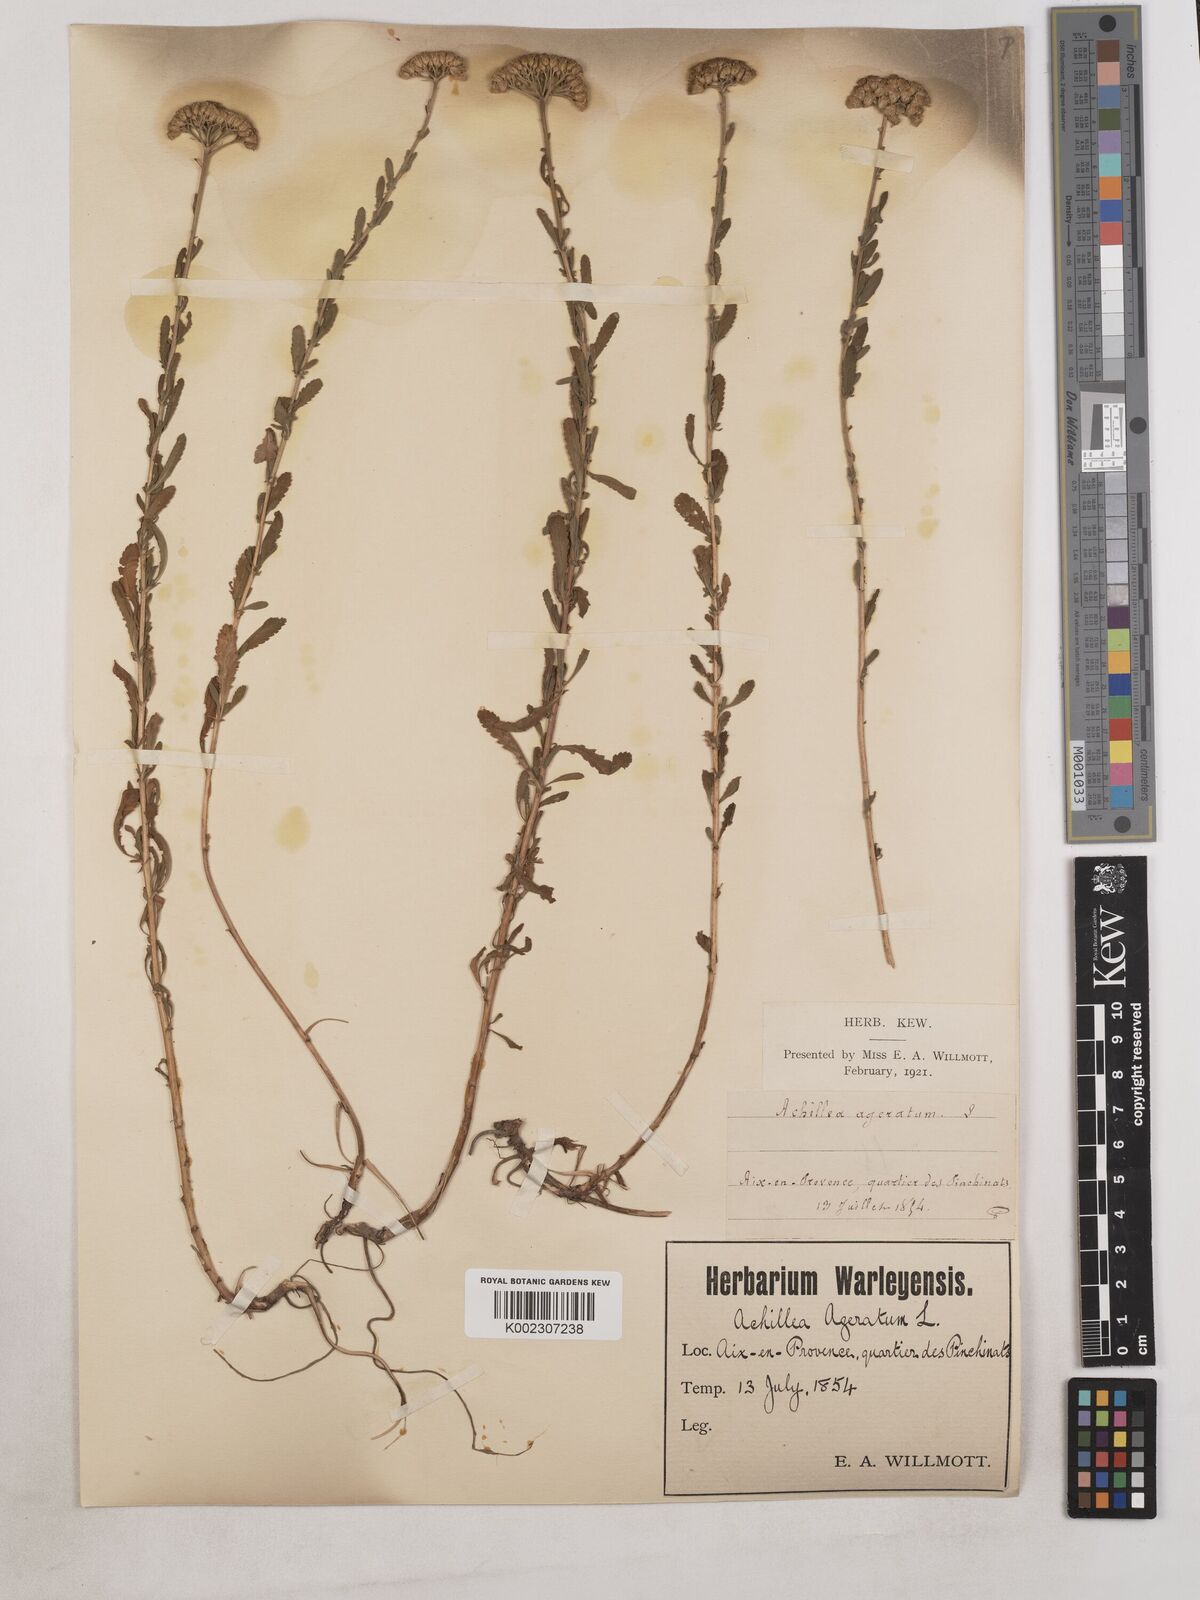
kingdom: Plantae
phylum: Tracheophyta
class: Magnoliopsida
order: Asterales
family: Asteraceae
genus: Achillea
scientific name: Achillea ageratum
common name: Sweet-nancy
